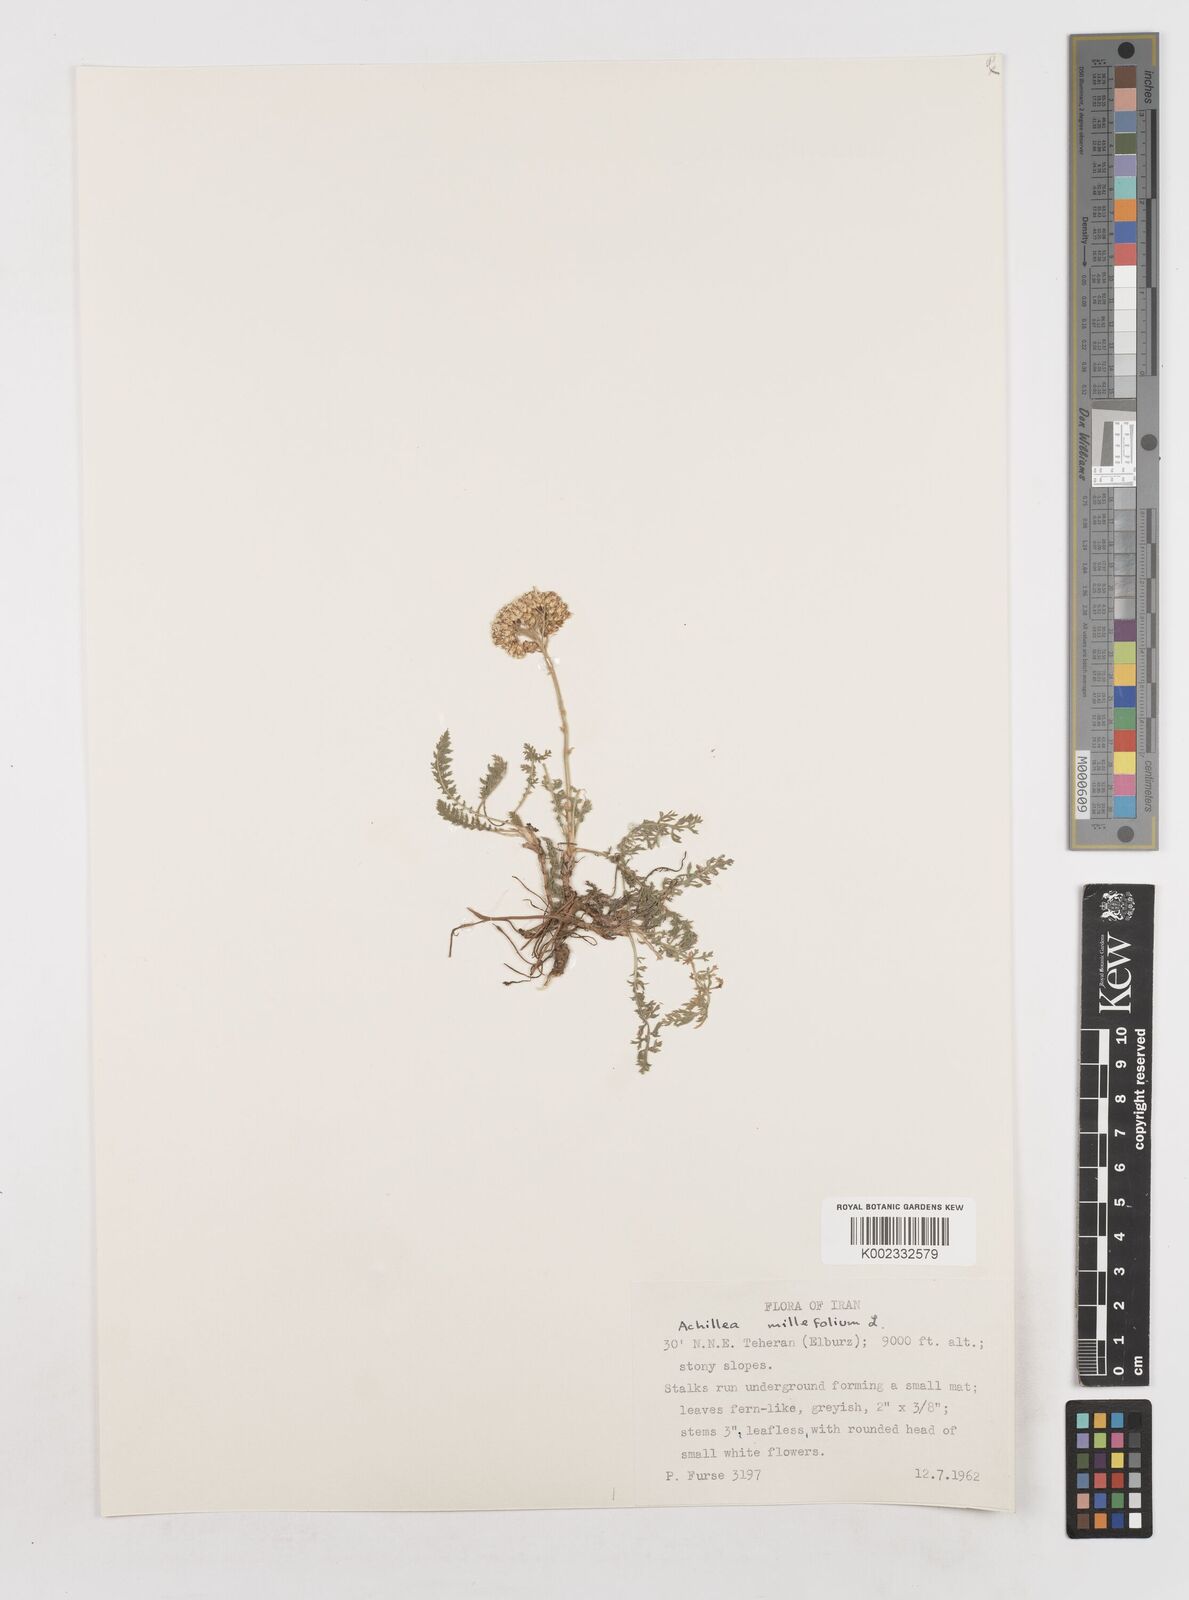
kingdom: Plantae
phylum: Tracheophyta
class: Magnoliopsida
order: Asterales
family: Asteraceae
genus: Achillea
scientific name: Achillea millefolium
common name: Yarrow
